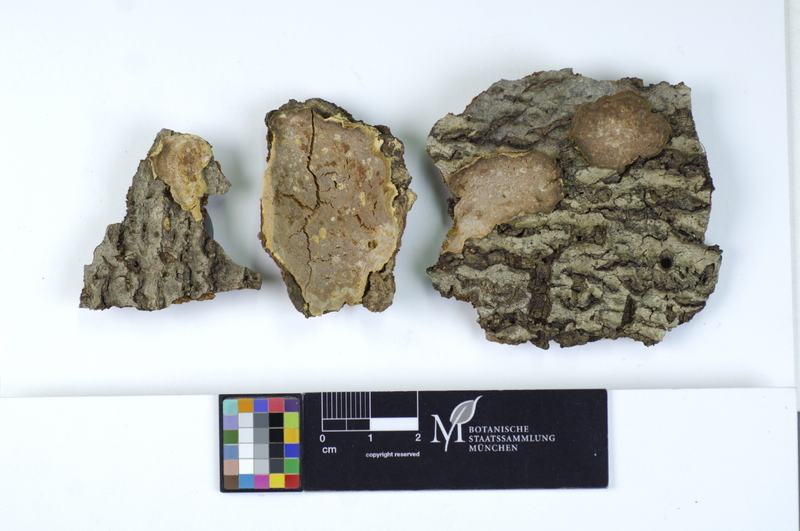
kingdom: Fungi
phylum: Basidiomycota
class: Agaricomycetes
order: Polyporales
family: Meripilaceae
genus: Rigidoporus
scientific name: Rigidoporus crocatus
